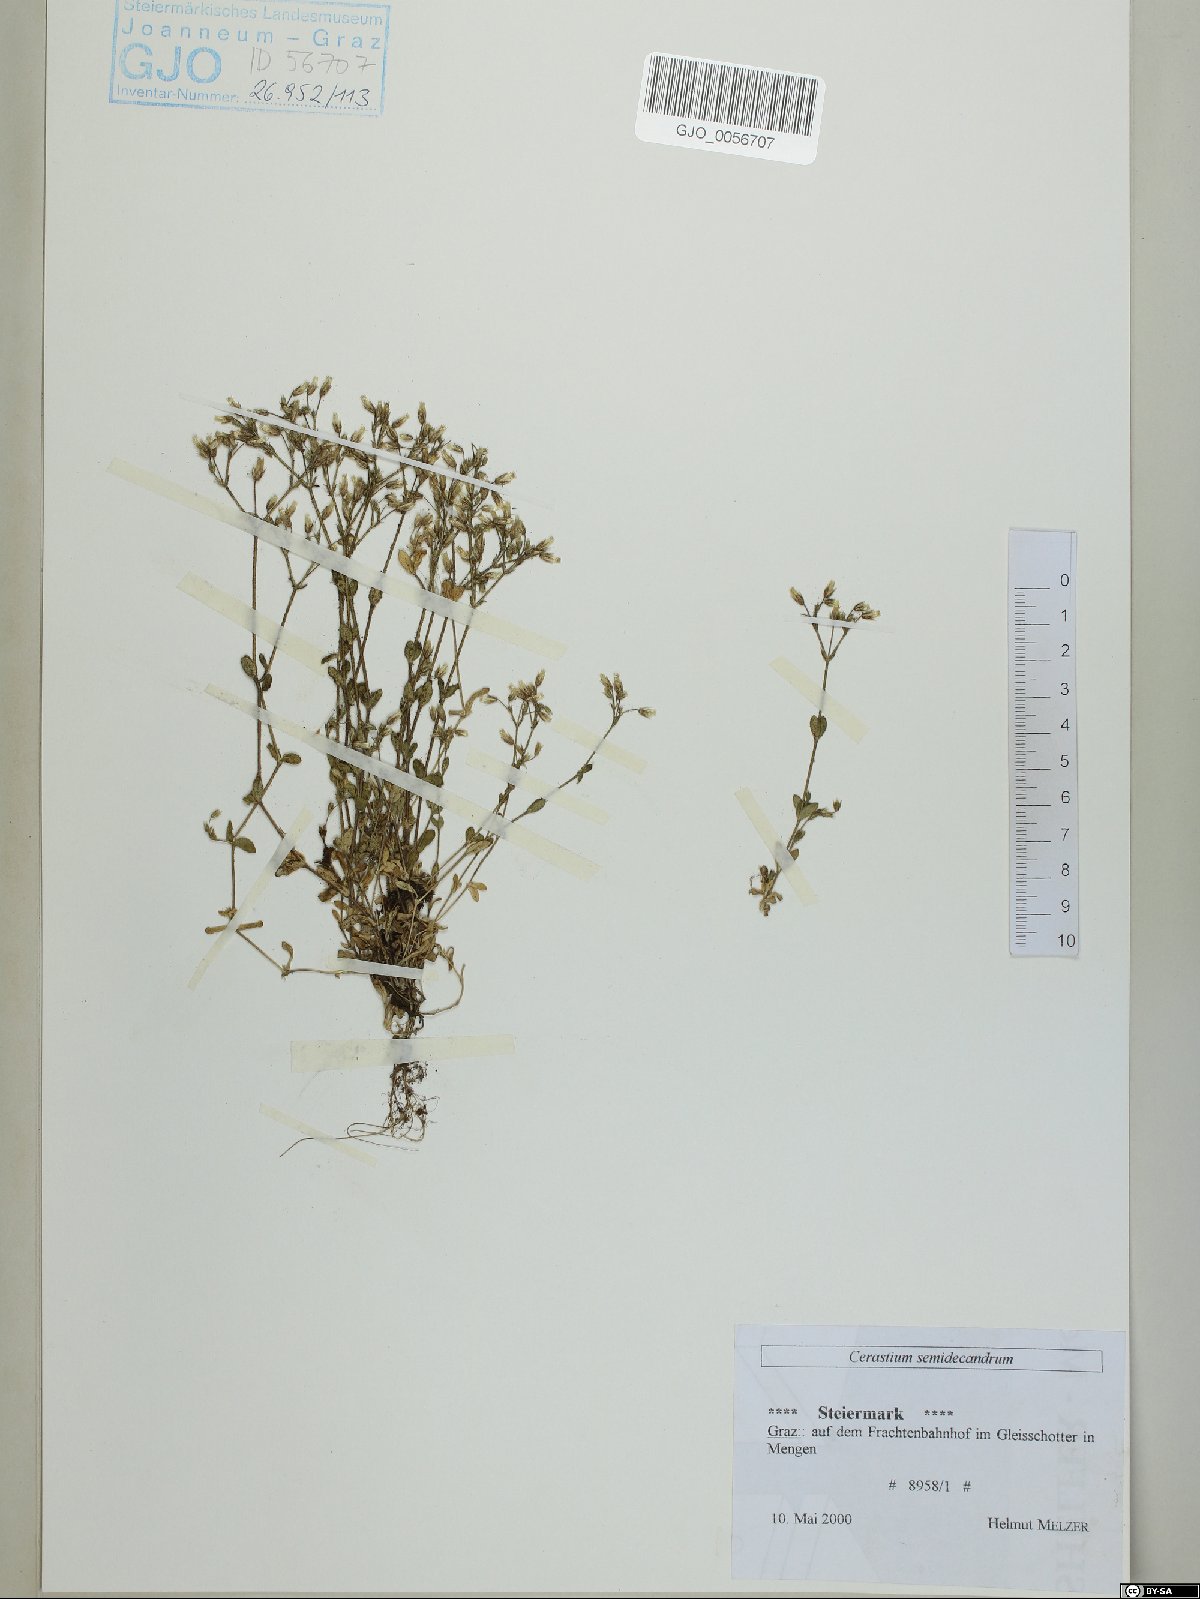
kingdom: Plantae
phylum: Tracheophyta
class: Magnoliopsida
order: Caryophyllales
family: Caryophyllaceae
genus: Cerastium
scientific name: Cerastium semidecandrum
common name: Little mouse-ear
